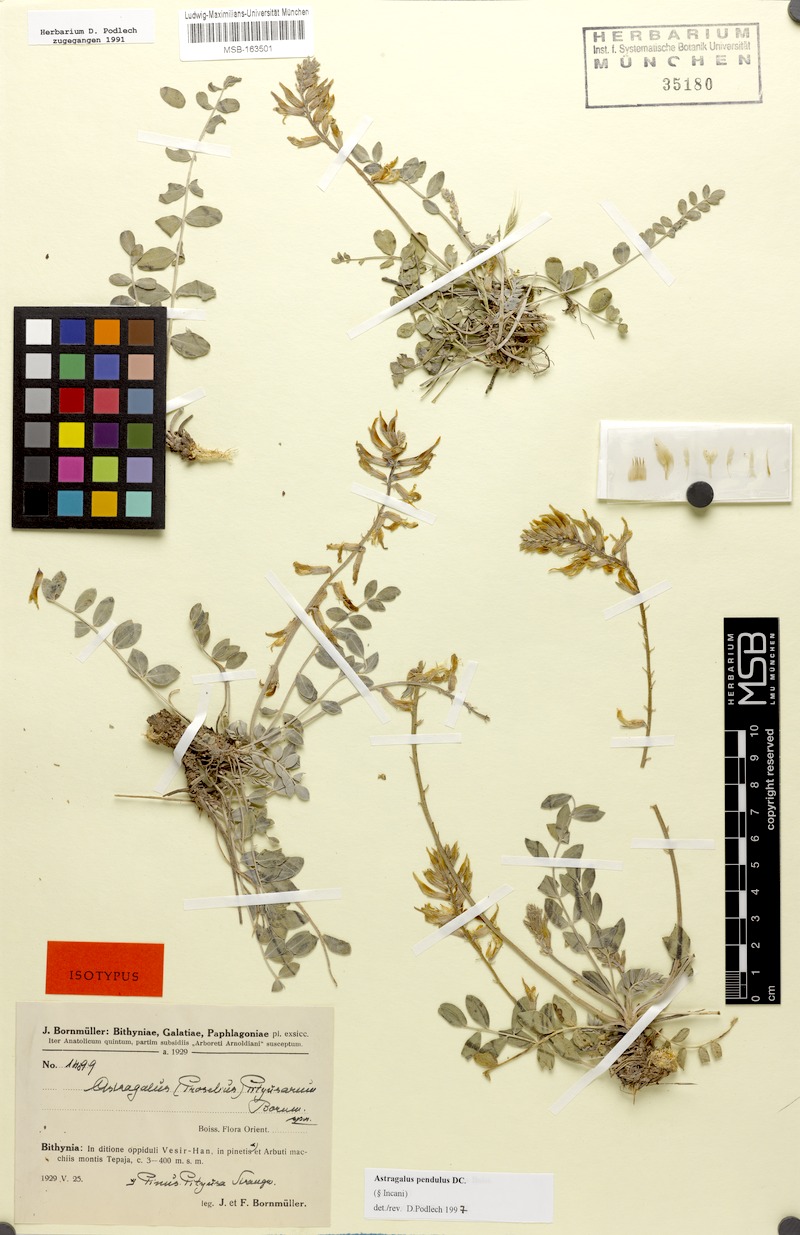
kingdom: Plantae
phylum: Tracheophyta
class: Magnoliopsida
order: Fabales
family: Fabaceae
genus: Astragalus
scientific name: Astragalus pendulus
